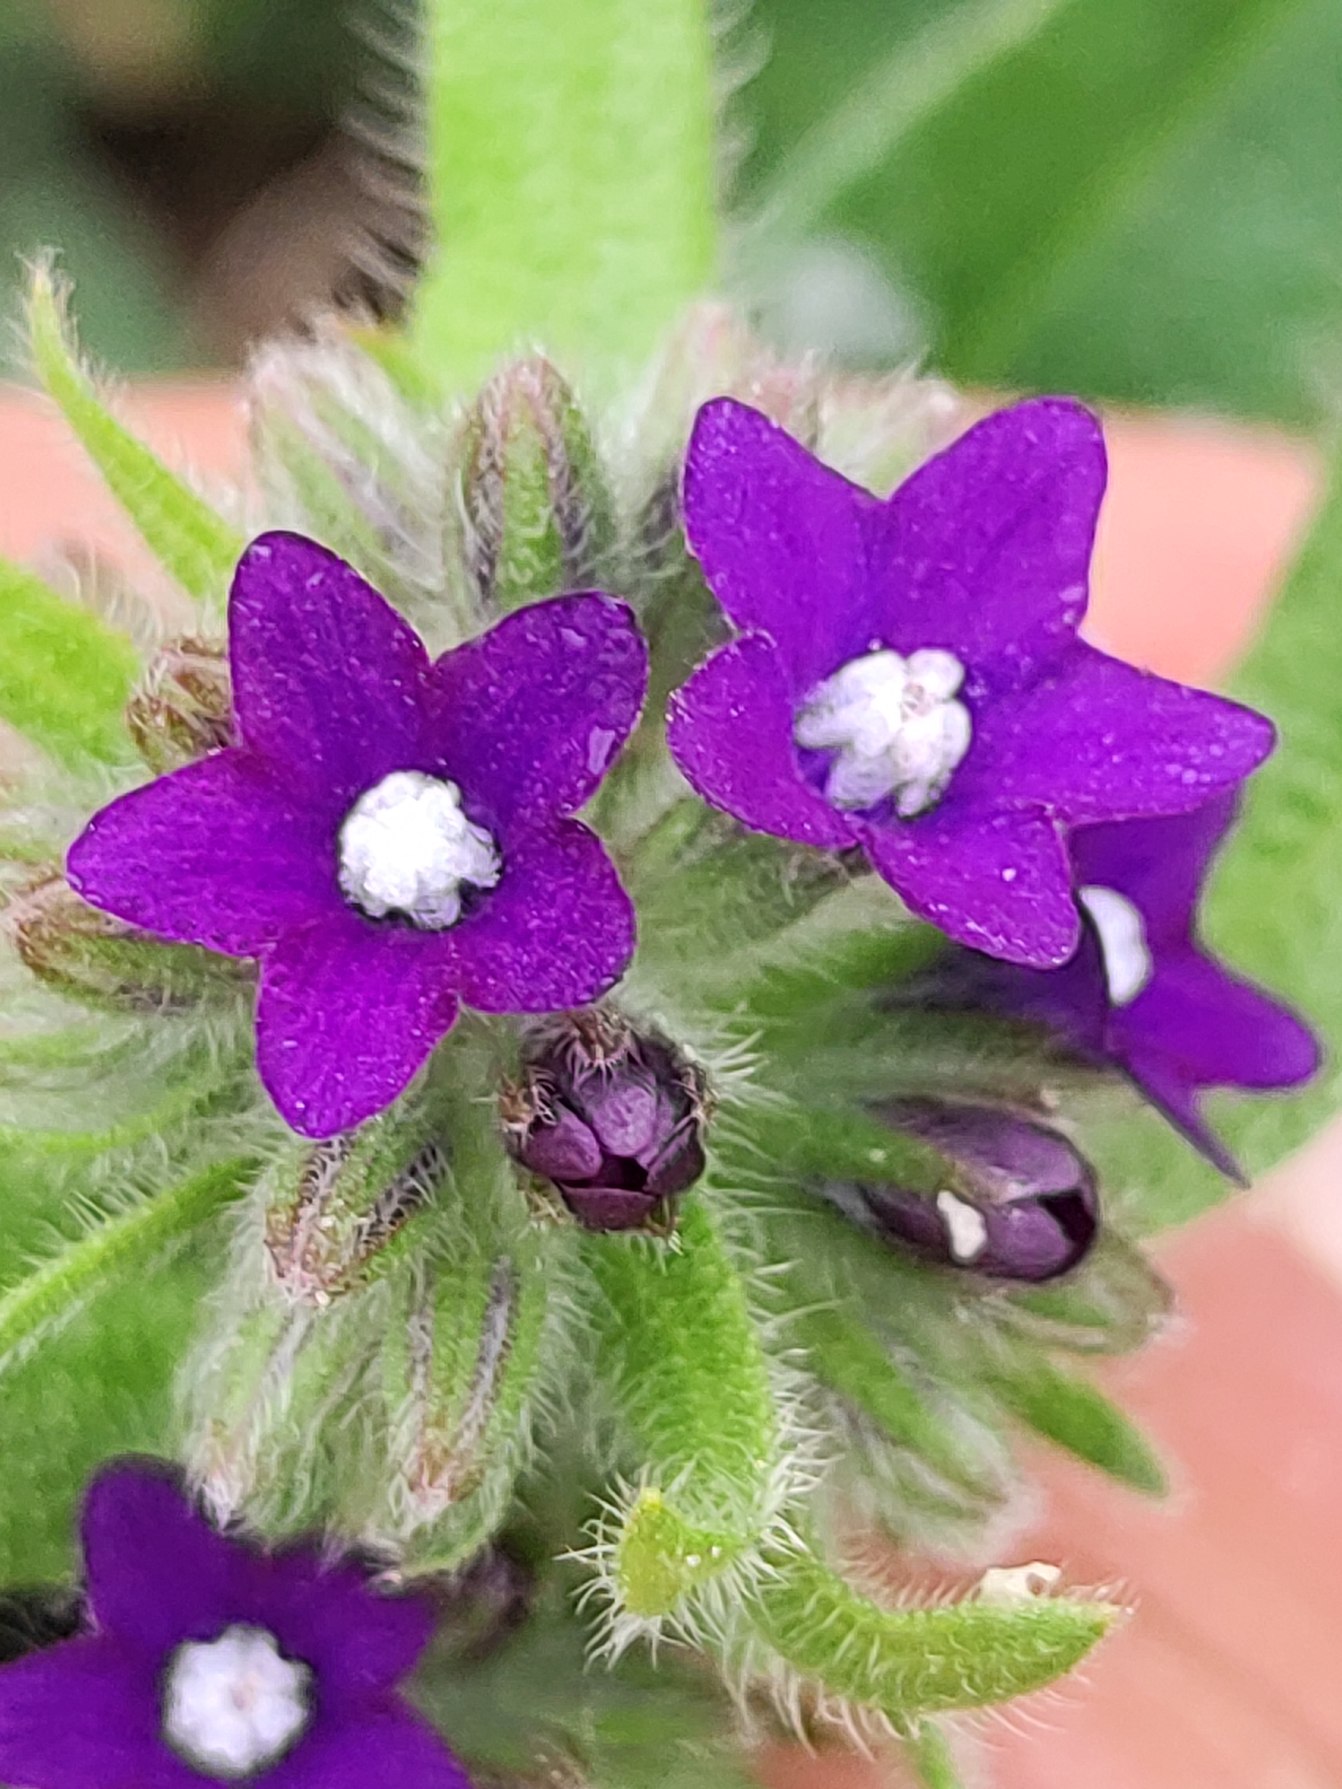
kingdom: Plantae
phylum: Tracheophyta
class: Magnoliopsida
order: Boraginales
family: Boraginaceae
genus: Anchusa
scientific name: Anchusa officinalis
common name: Læge-oksetunge
